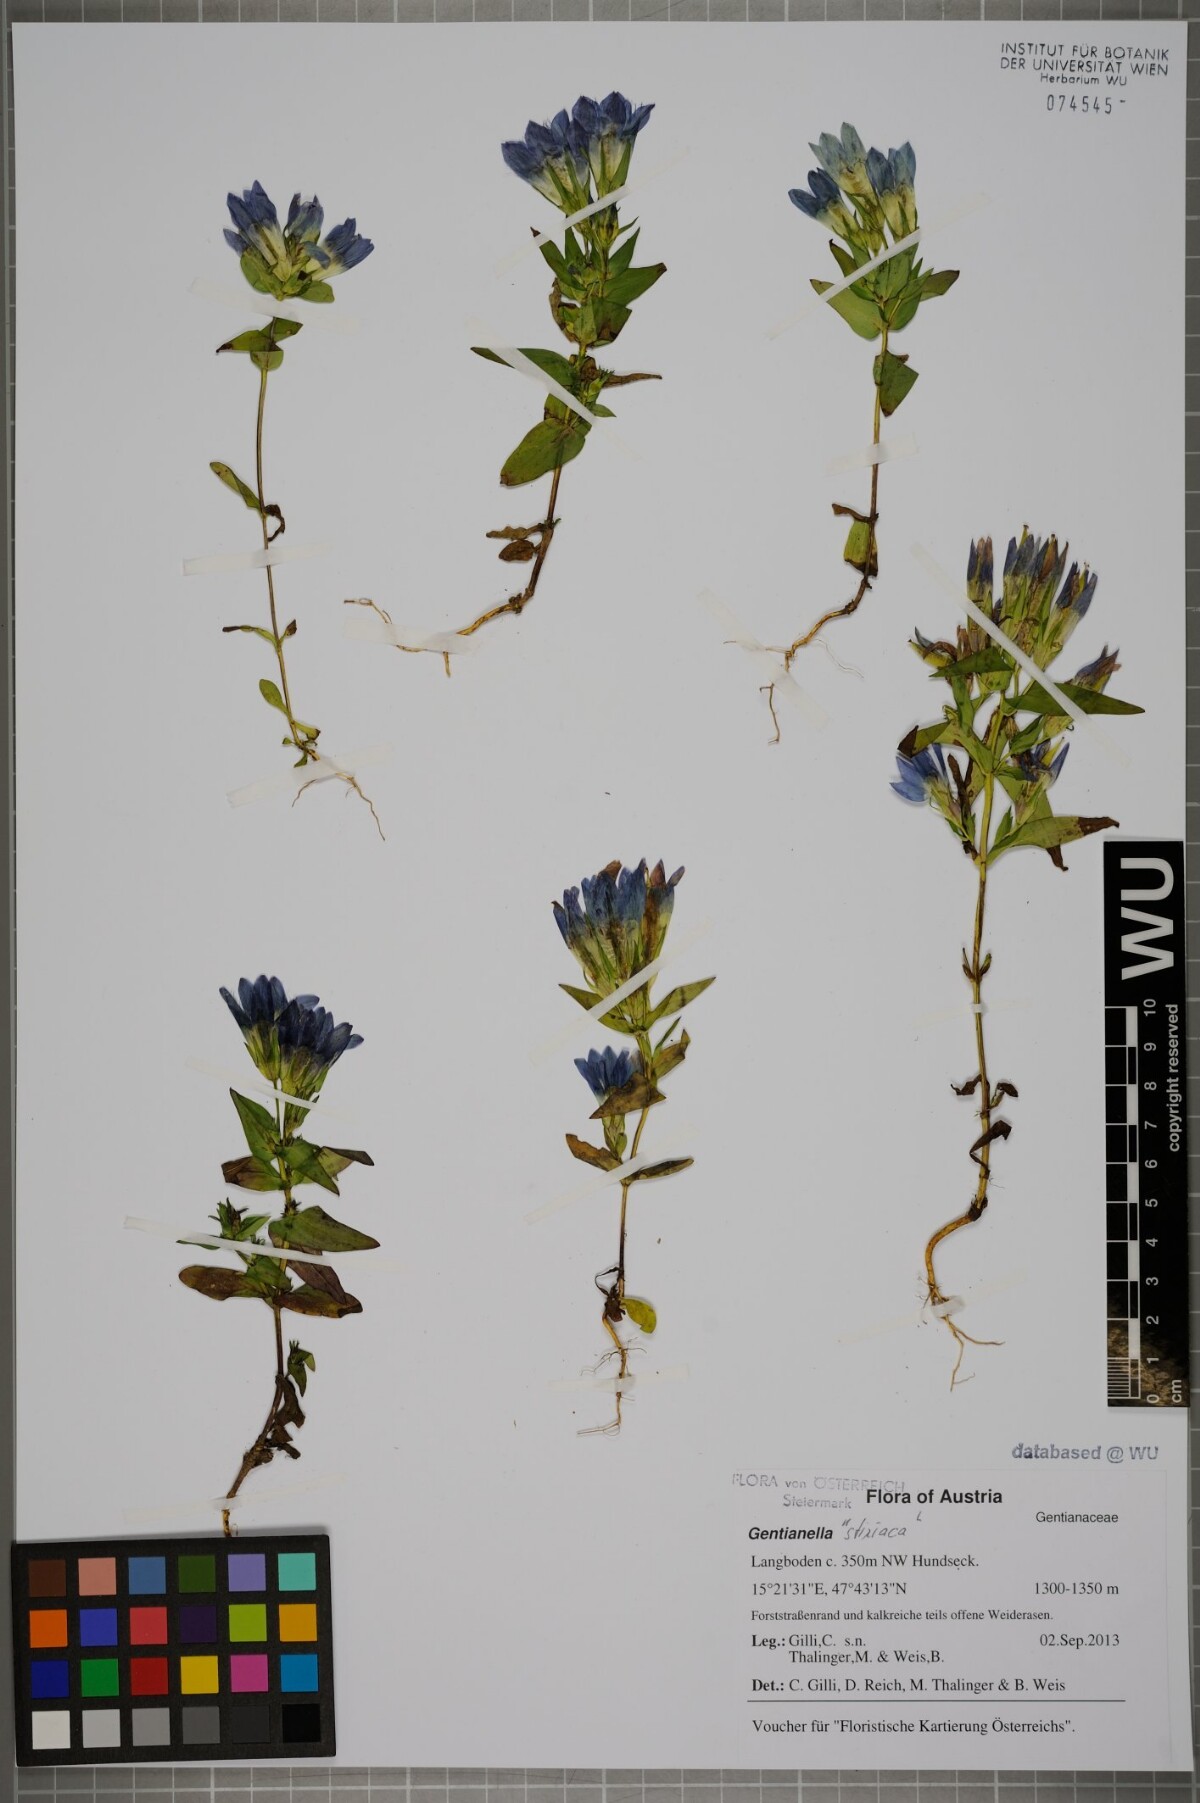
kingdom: Plantae
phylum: Tracheophyta
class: Magnoliopsida
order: Gentianales
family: Gentianaceae
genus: Gentianella
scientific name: Gentianella
